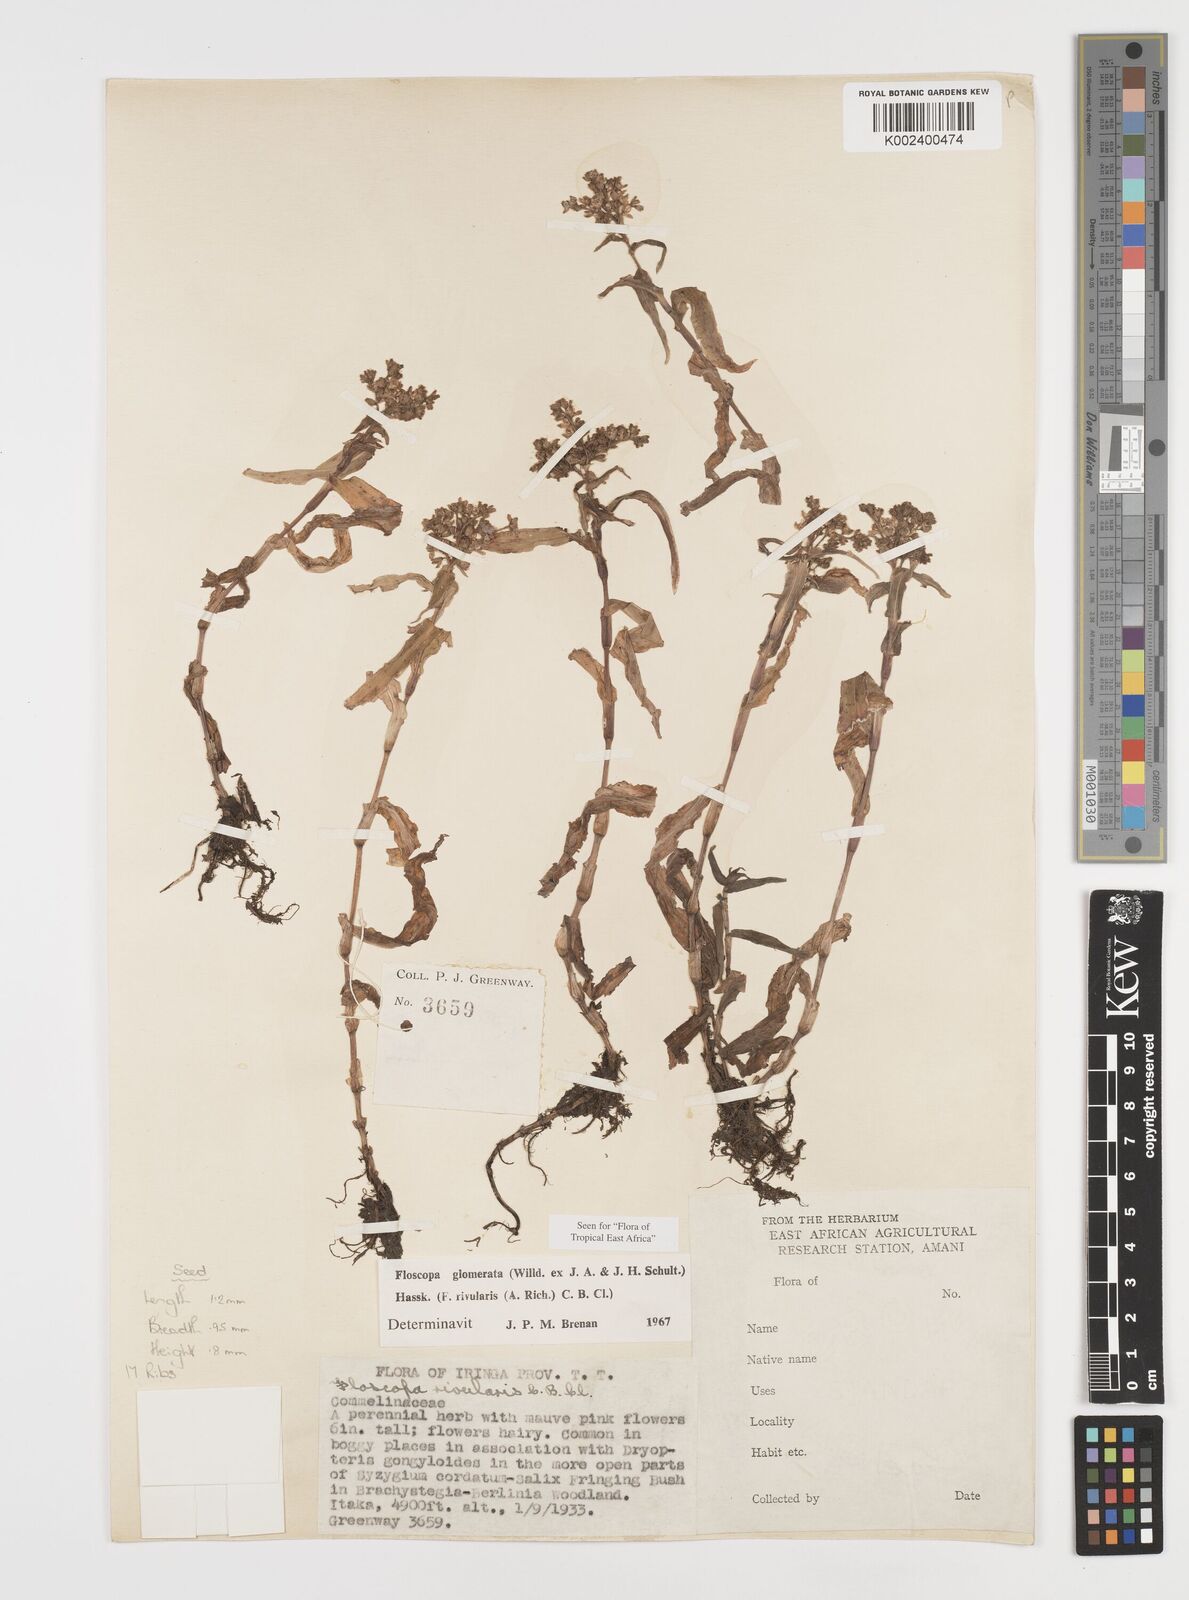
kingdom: Plantae
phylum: Tracheophyta
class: Liliopsida
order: Commelinales
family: Commelinaceae
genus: Floscopa
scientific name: Floscopa glomerata
